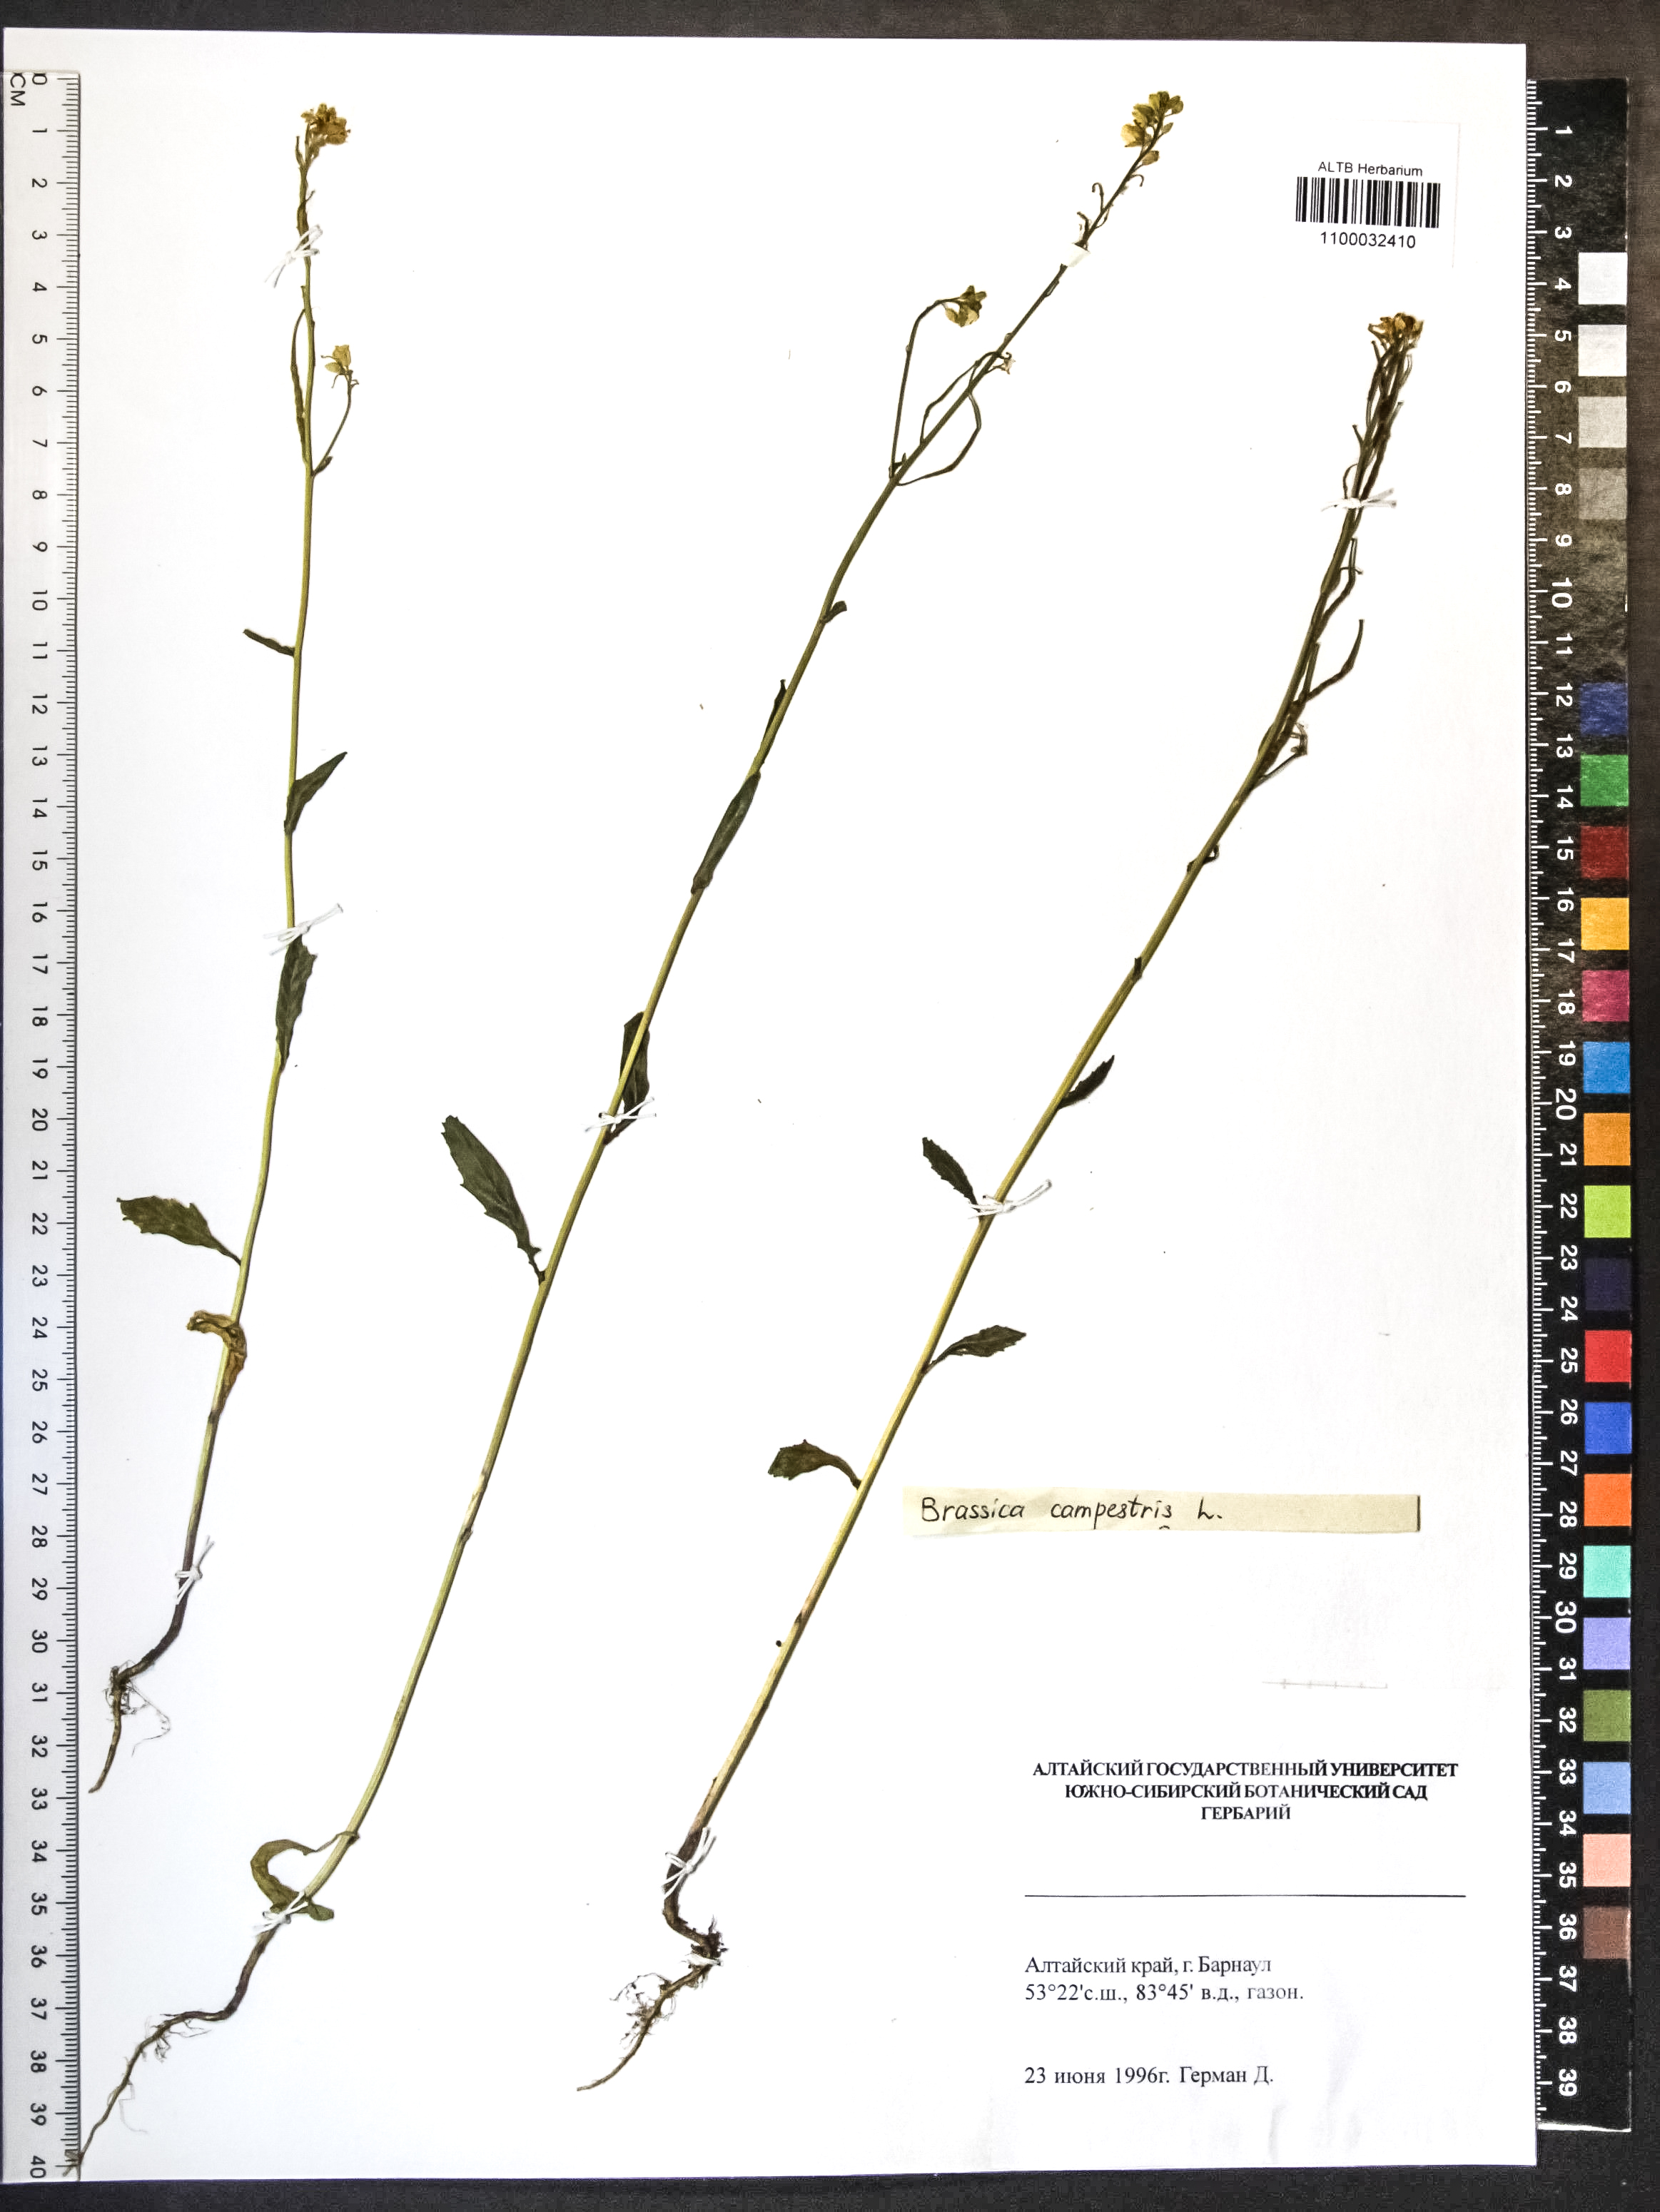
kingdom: Plantae
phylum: Tracheophyta
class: Magnoliopsida
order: Brassicales
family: Brassicaceae
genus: Brassica
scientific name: Brassica rapa
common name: Field mustard
